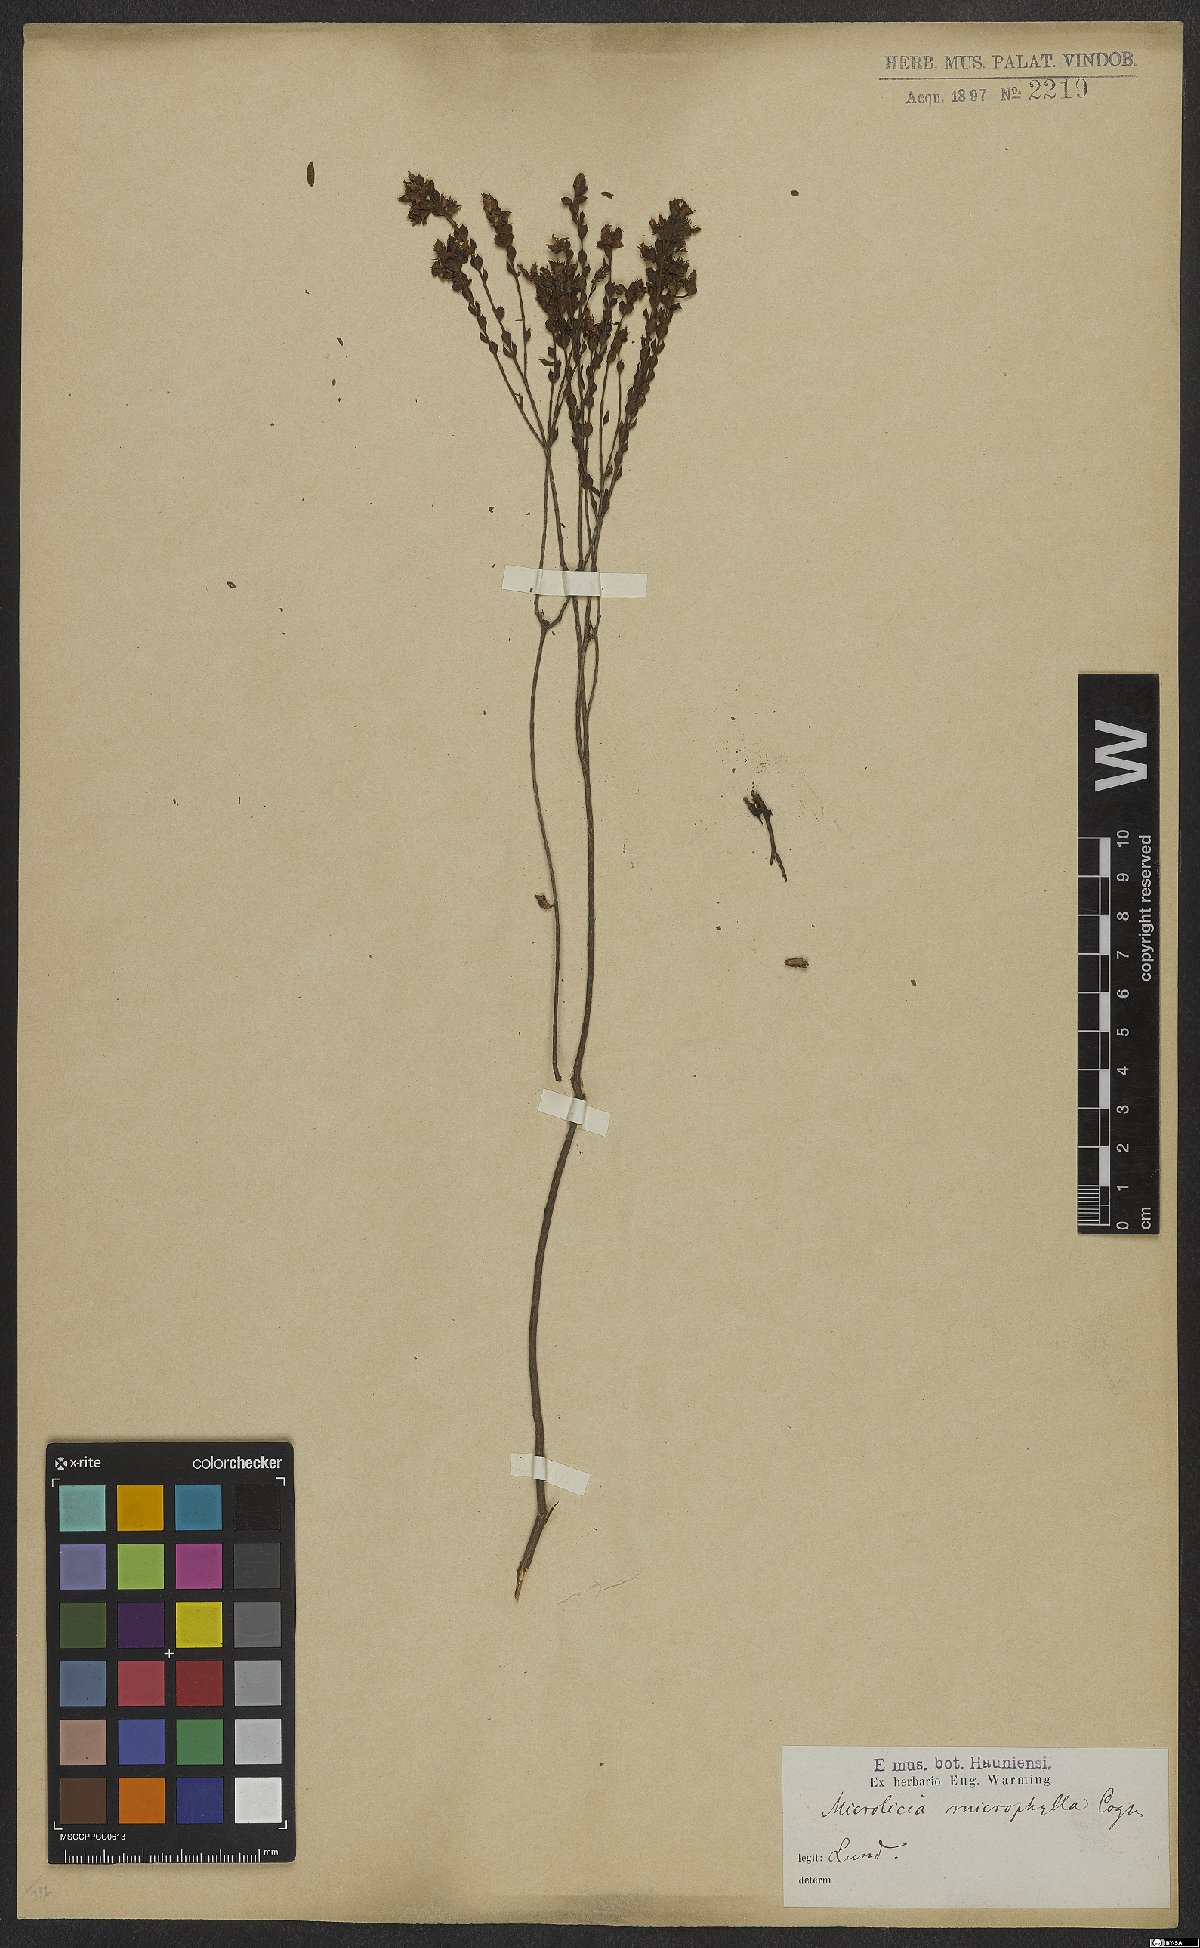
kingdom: Plantae
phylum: Tracheophyta
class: Magnoliopsida
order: Myrtales
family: Melastomataceae
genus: Microlicia
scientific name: Microlicia microphylla
